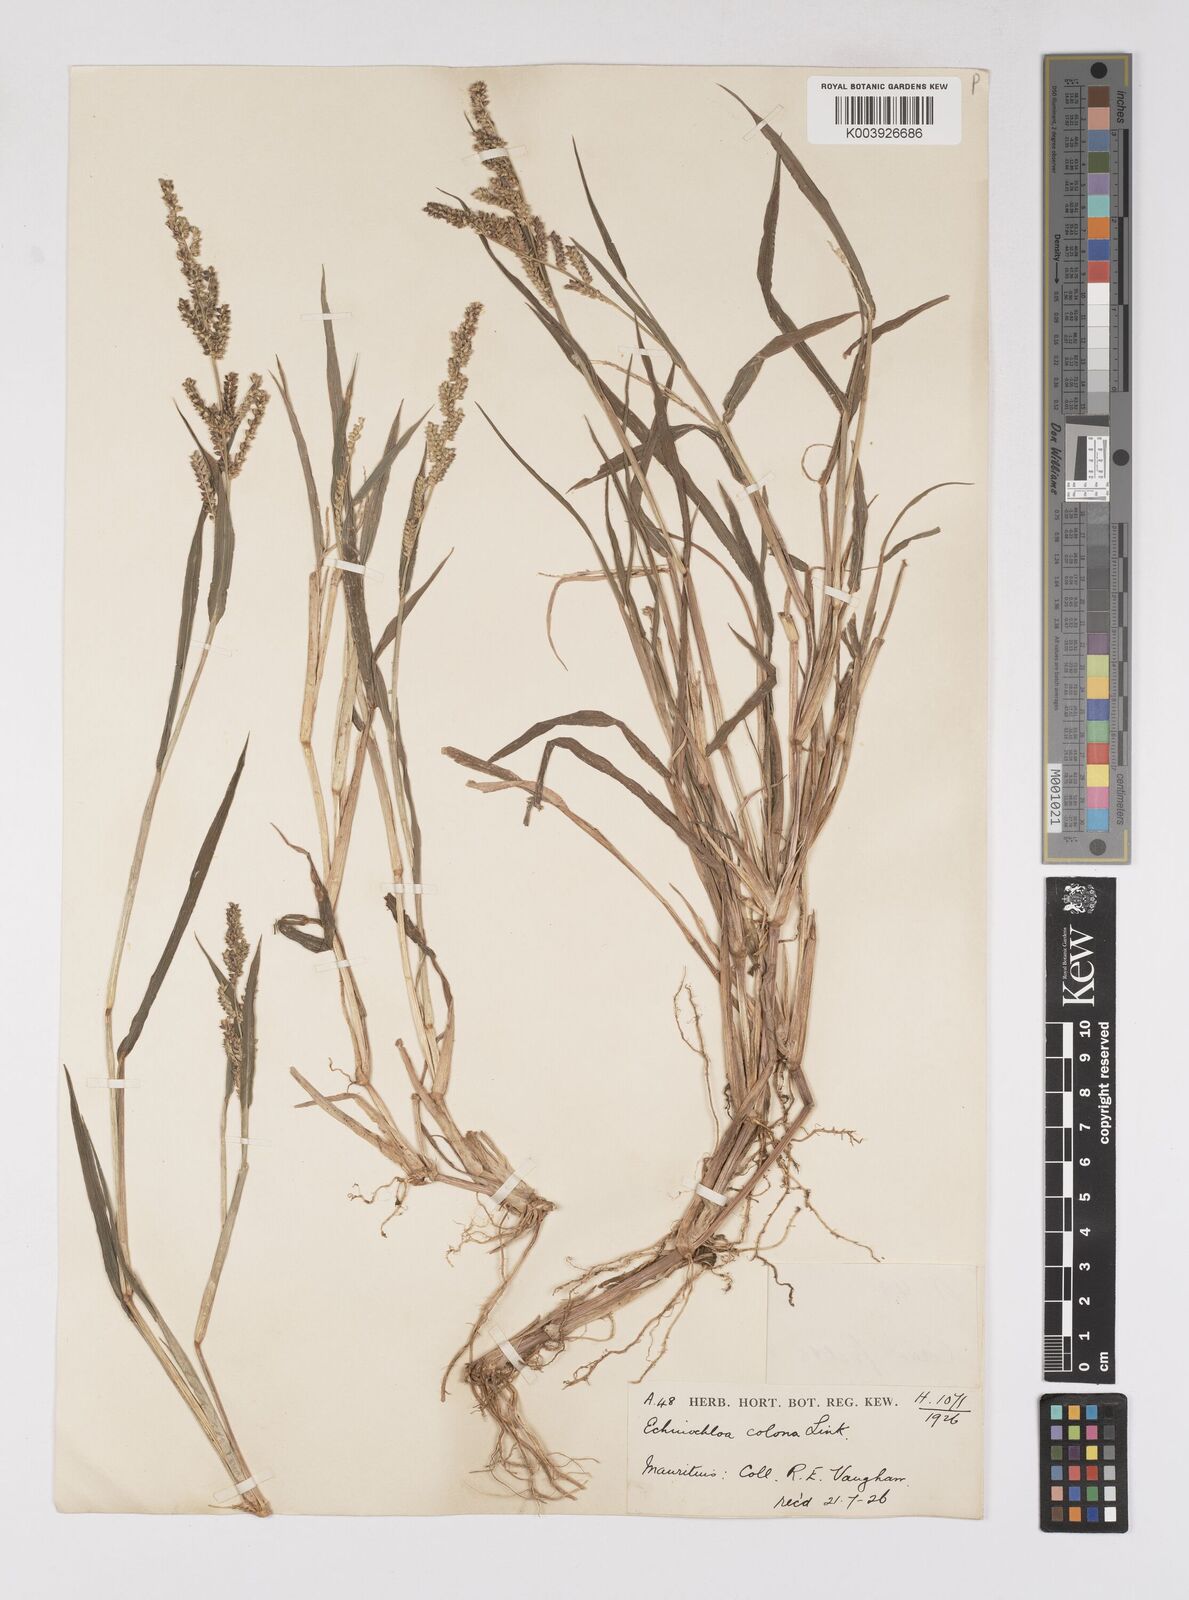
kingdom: Plantae
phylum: Tracheophyta
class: Liliopsida
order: Poales
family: Poaceae
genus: Echinochloa
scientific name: Echinochloa colonum
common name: Jungle rice
